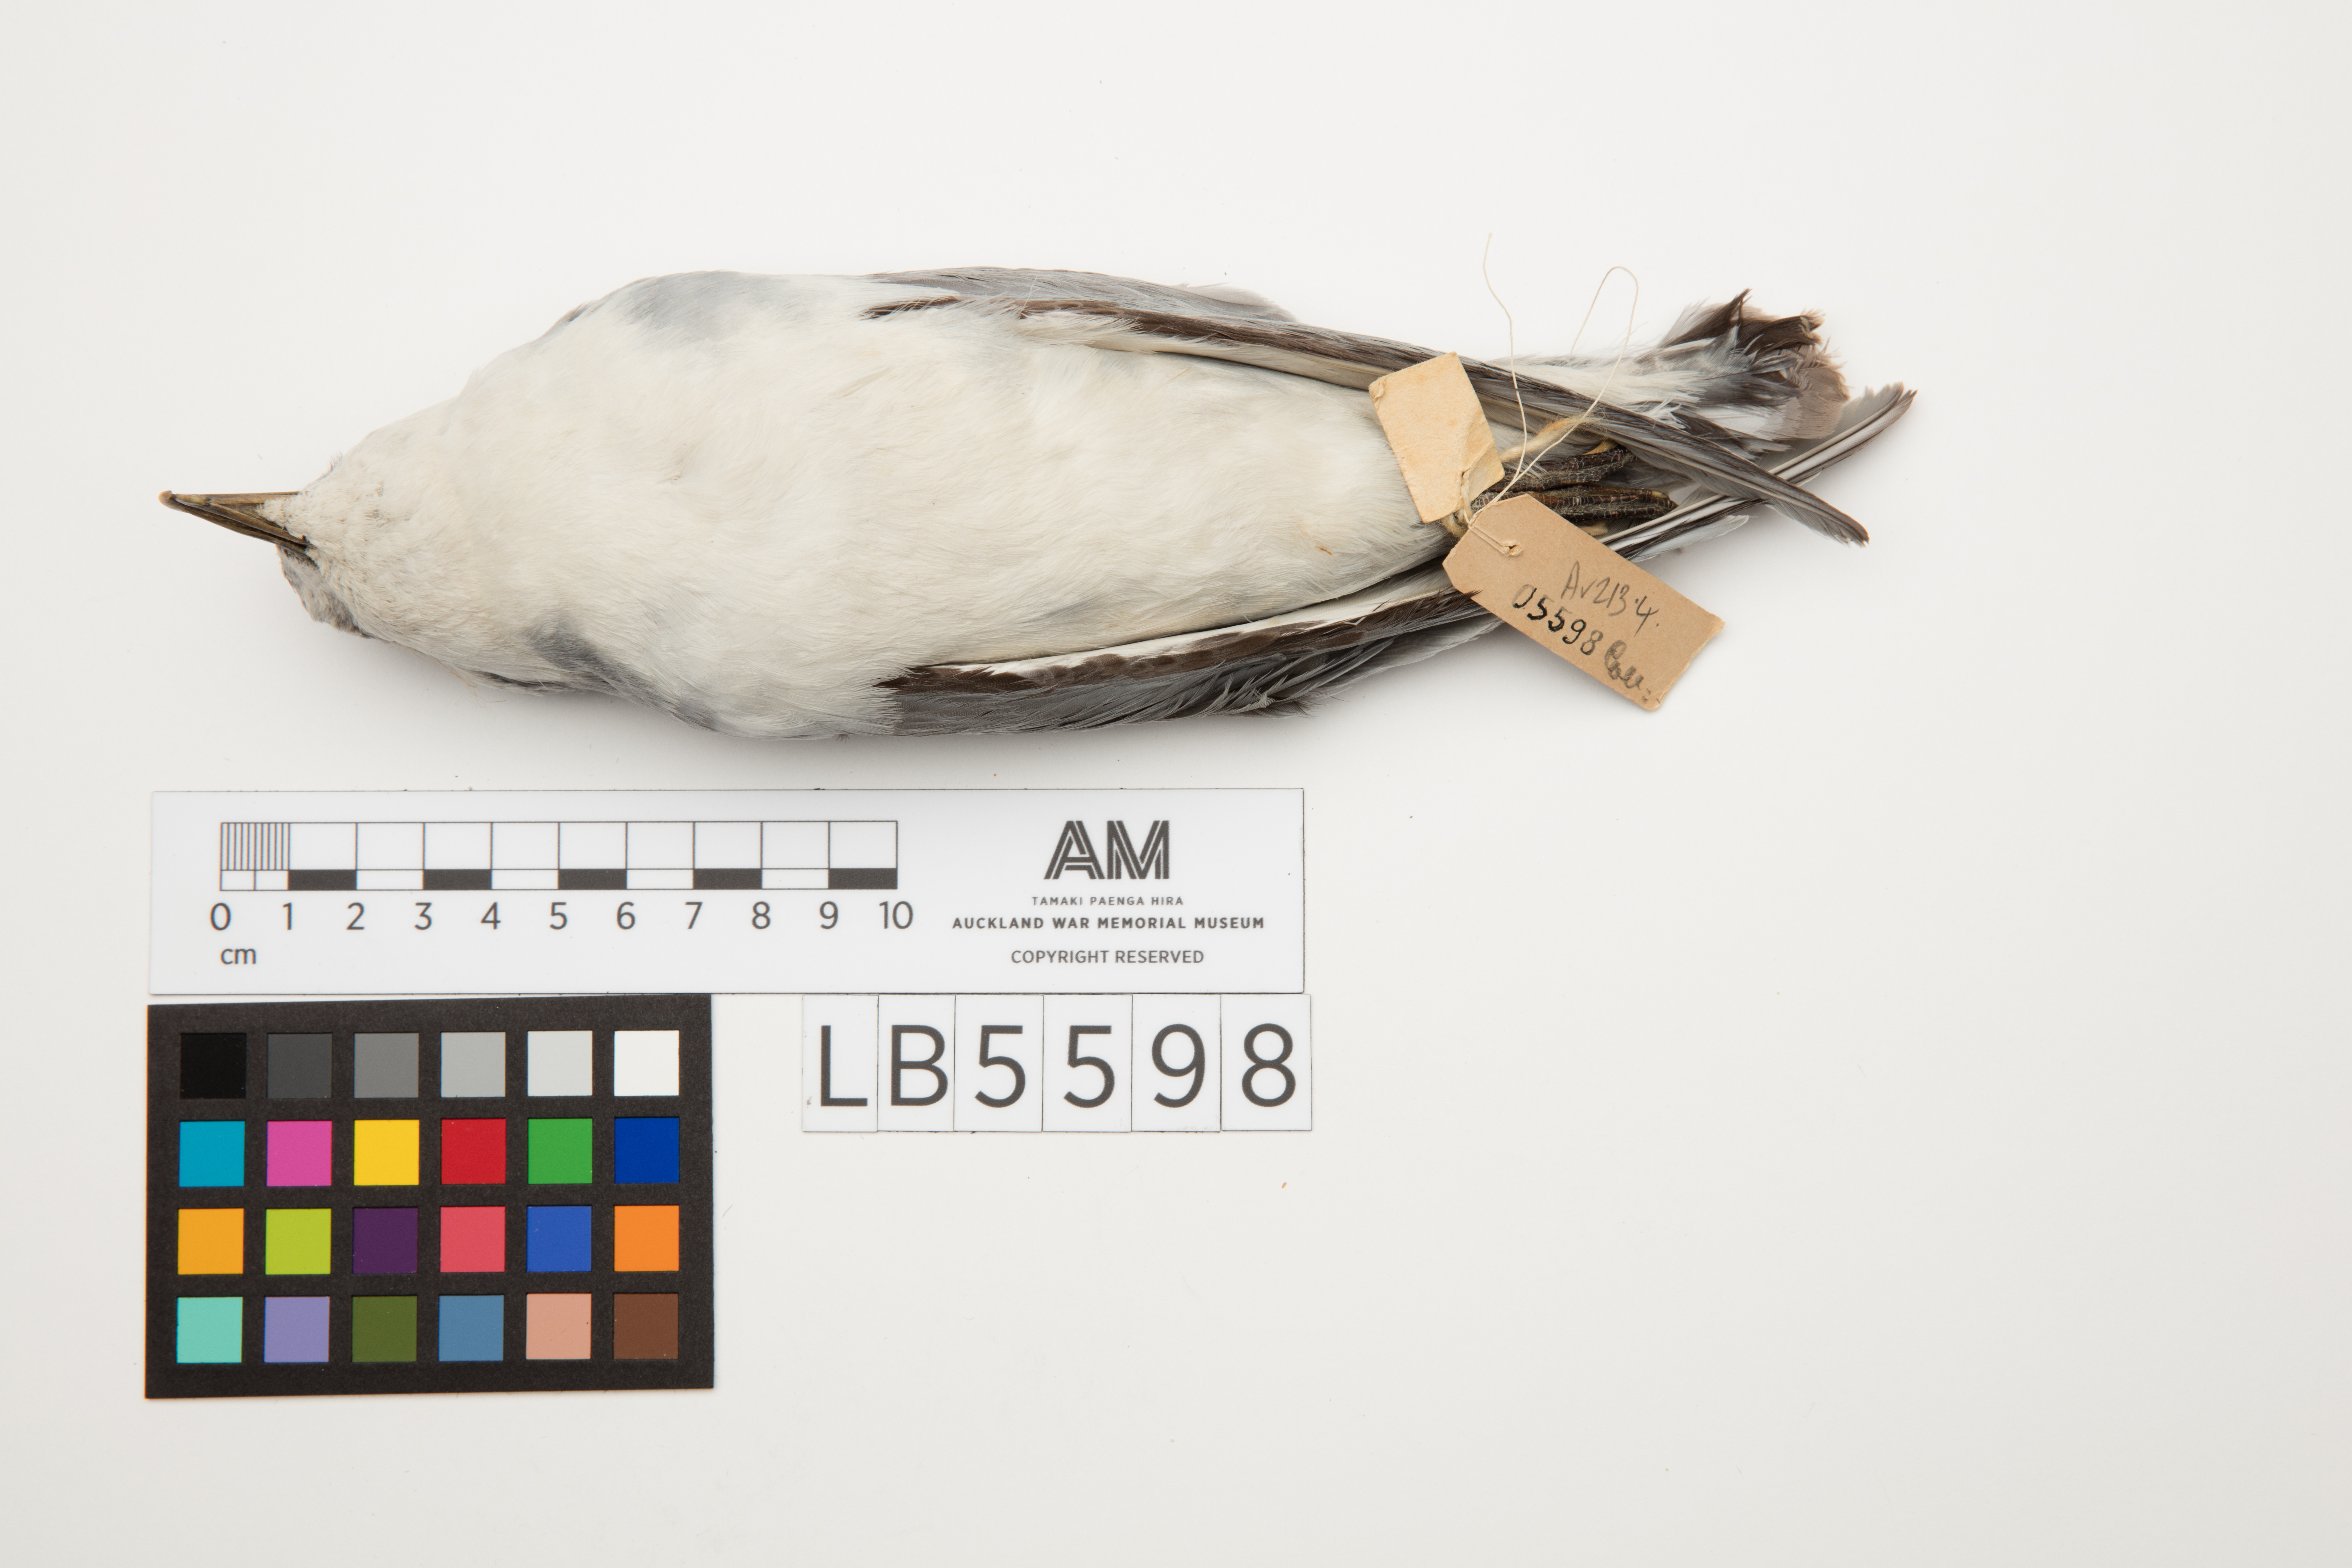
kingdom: Animalia
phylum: Chordata
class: Aves
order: Procellariiformes
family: Procellariidae
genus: Pachyptila
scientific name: Pachyptila belcheri
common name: Slender-billed prion
